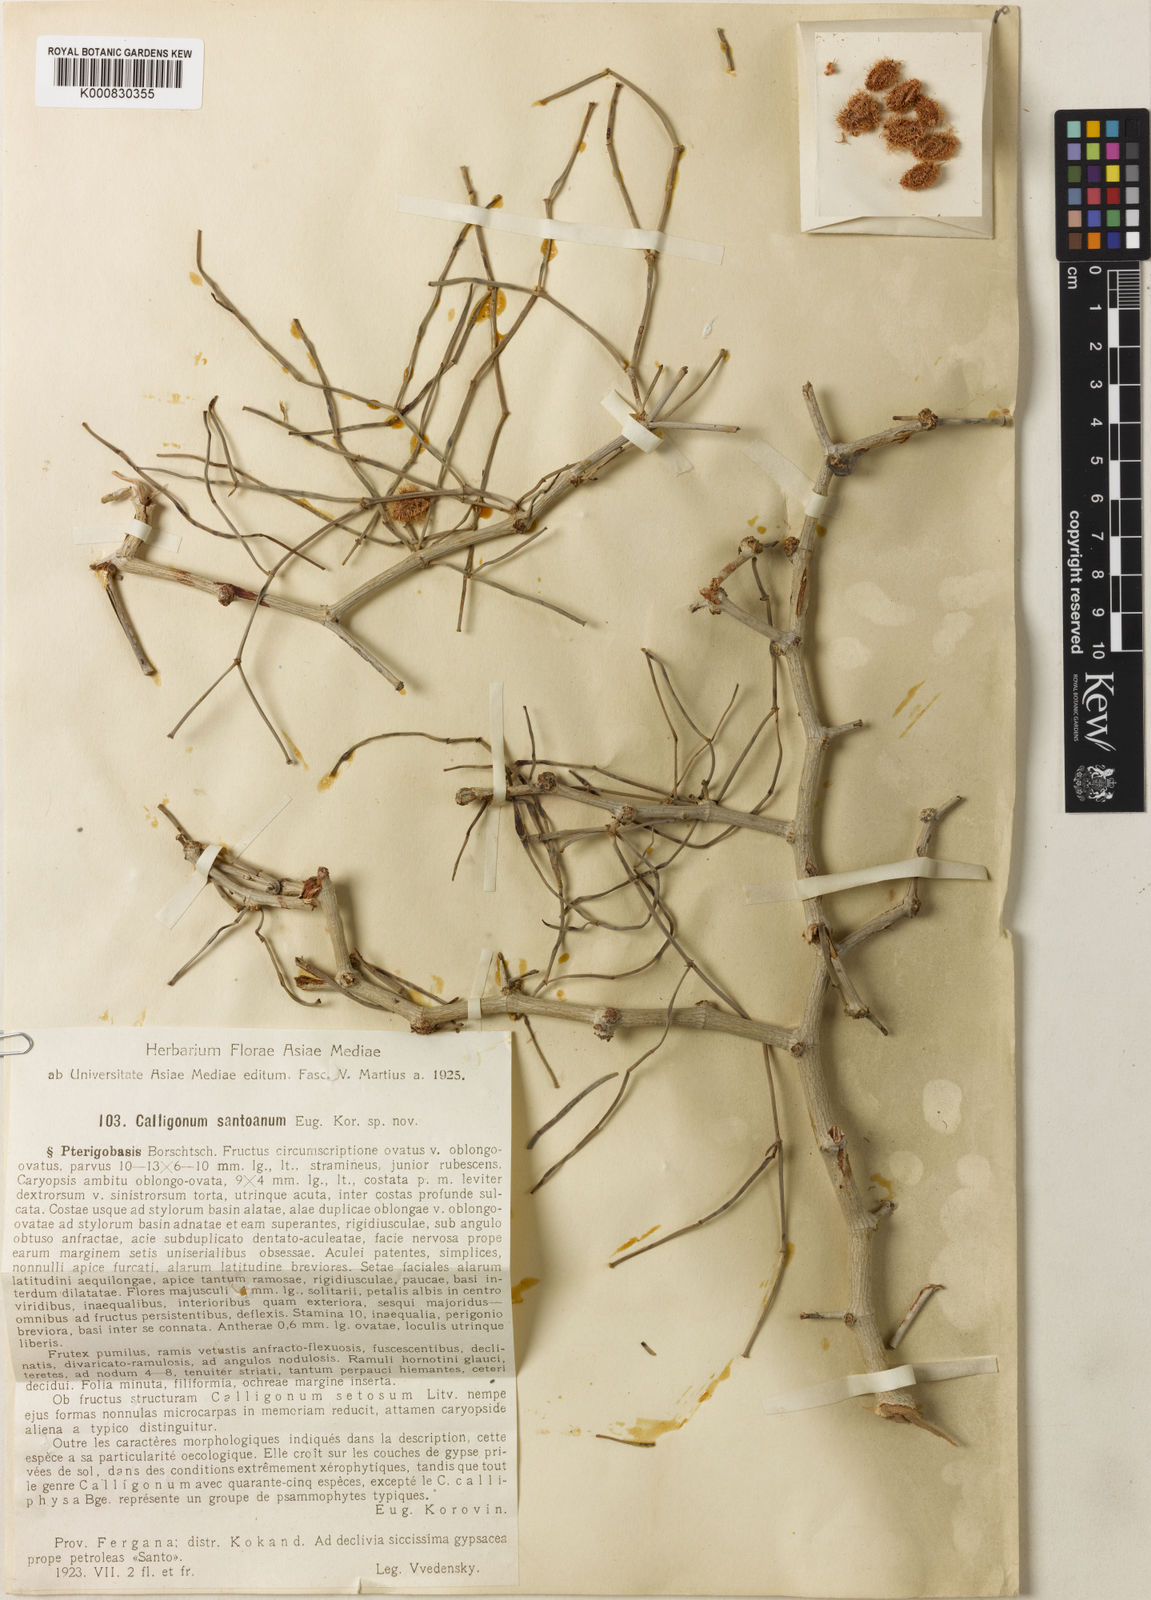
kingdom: Plantae
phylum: Tracheophyta
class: Magnoliopsida
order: Caryophyllales
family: Polygonaceae
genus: Calligonum
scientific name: Calligonum santoanum
